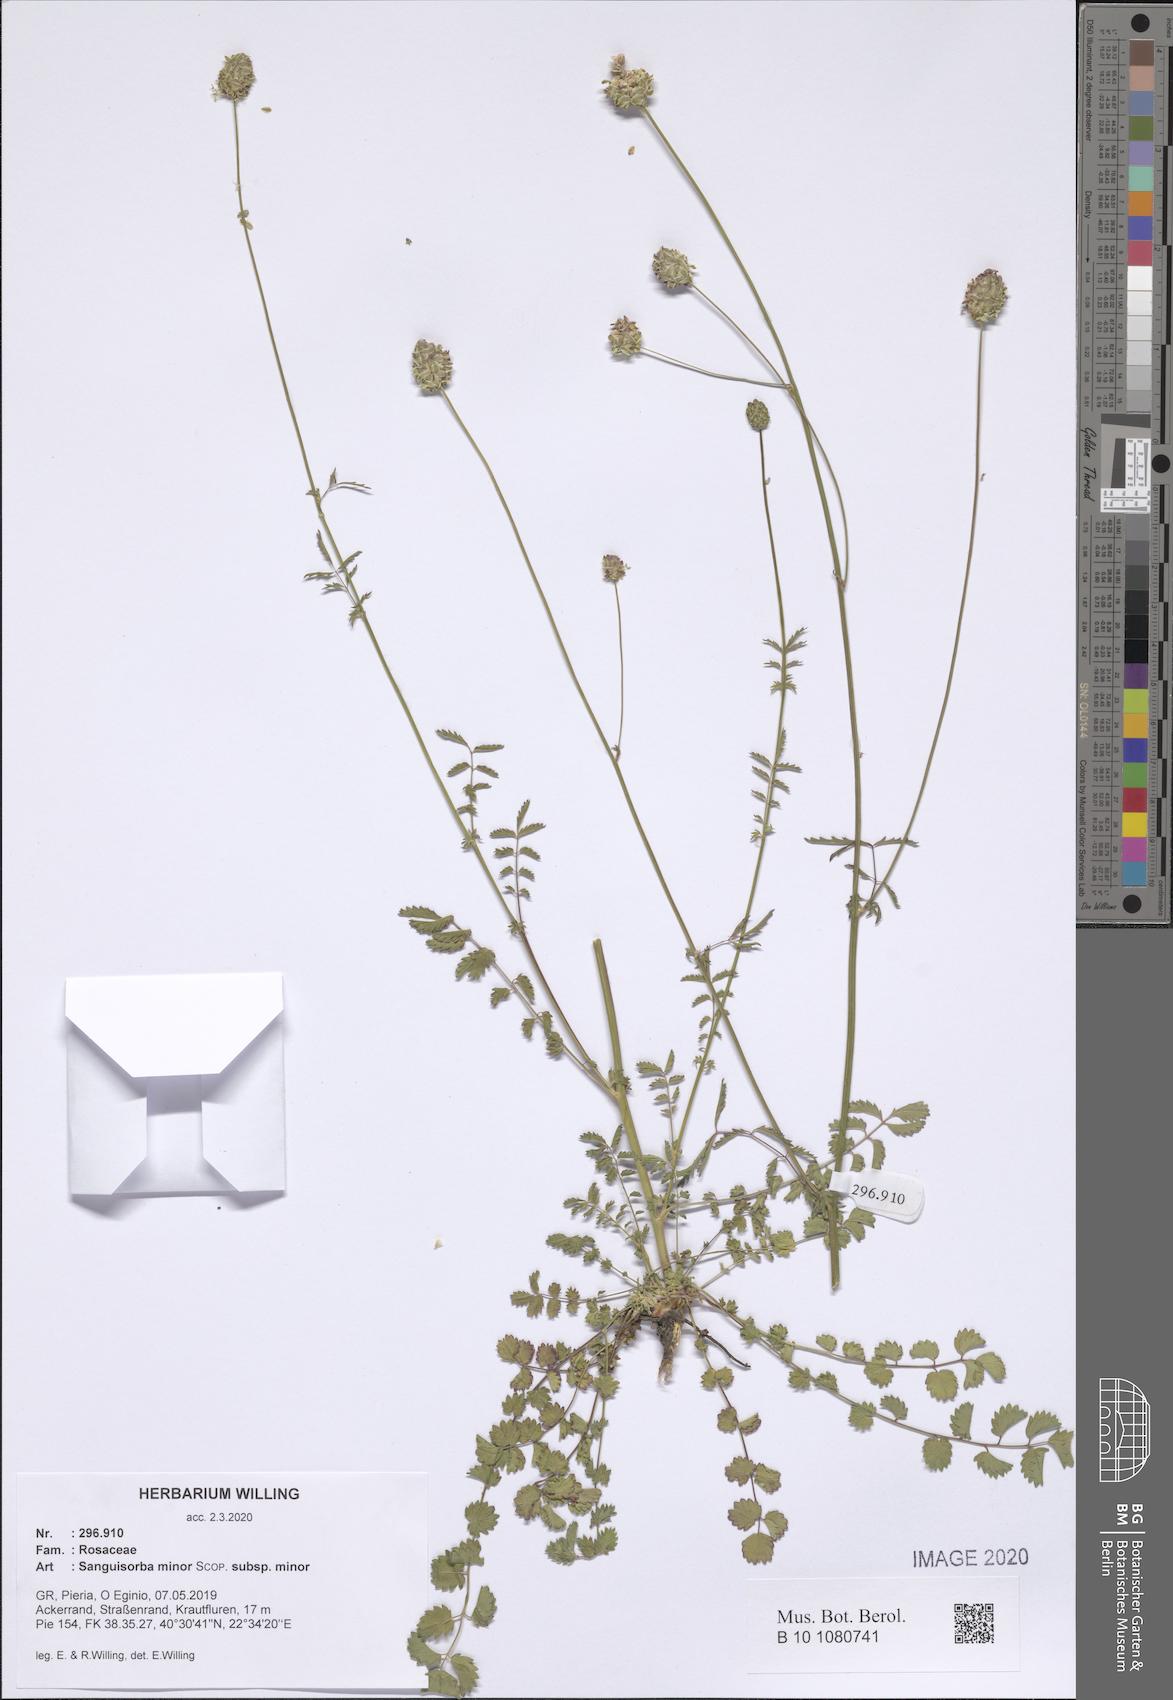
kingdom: Plantae
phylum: Tracheophyta
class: Magnoliopsida
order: Rosales
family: Rosaceae
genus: Poterium
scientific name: Poterium sanguisorba
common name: Salad burnet
